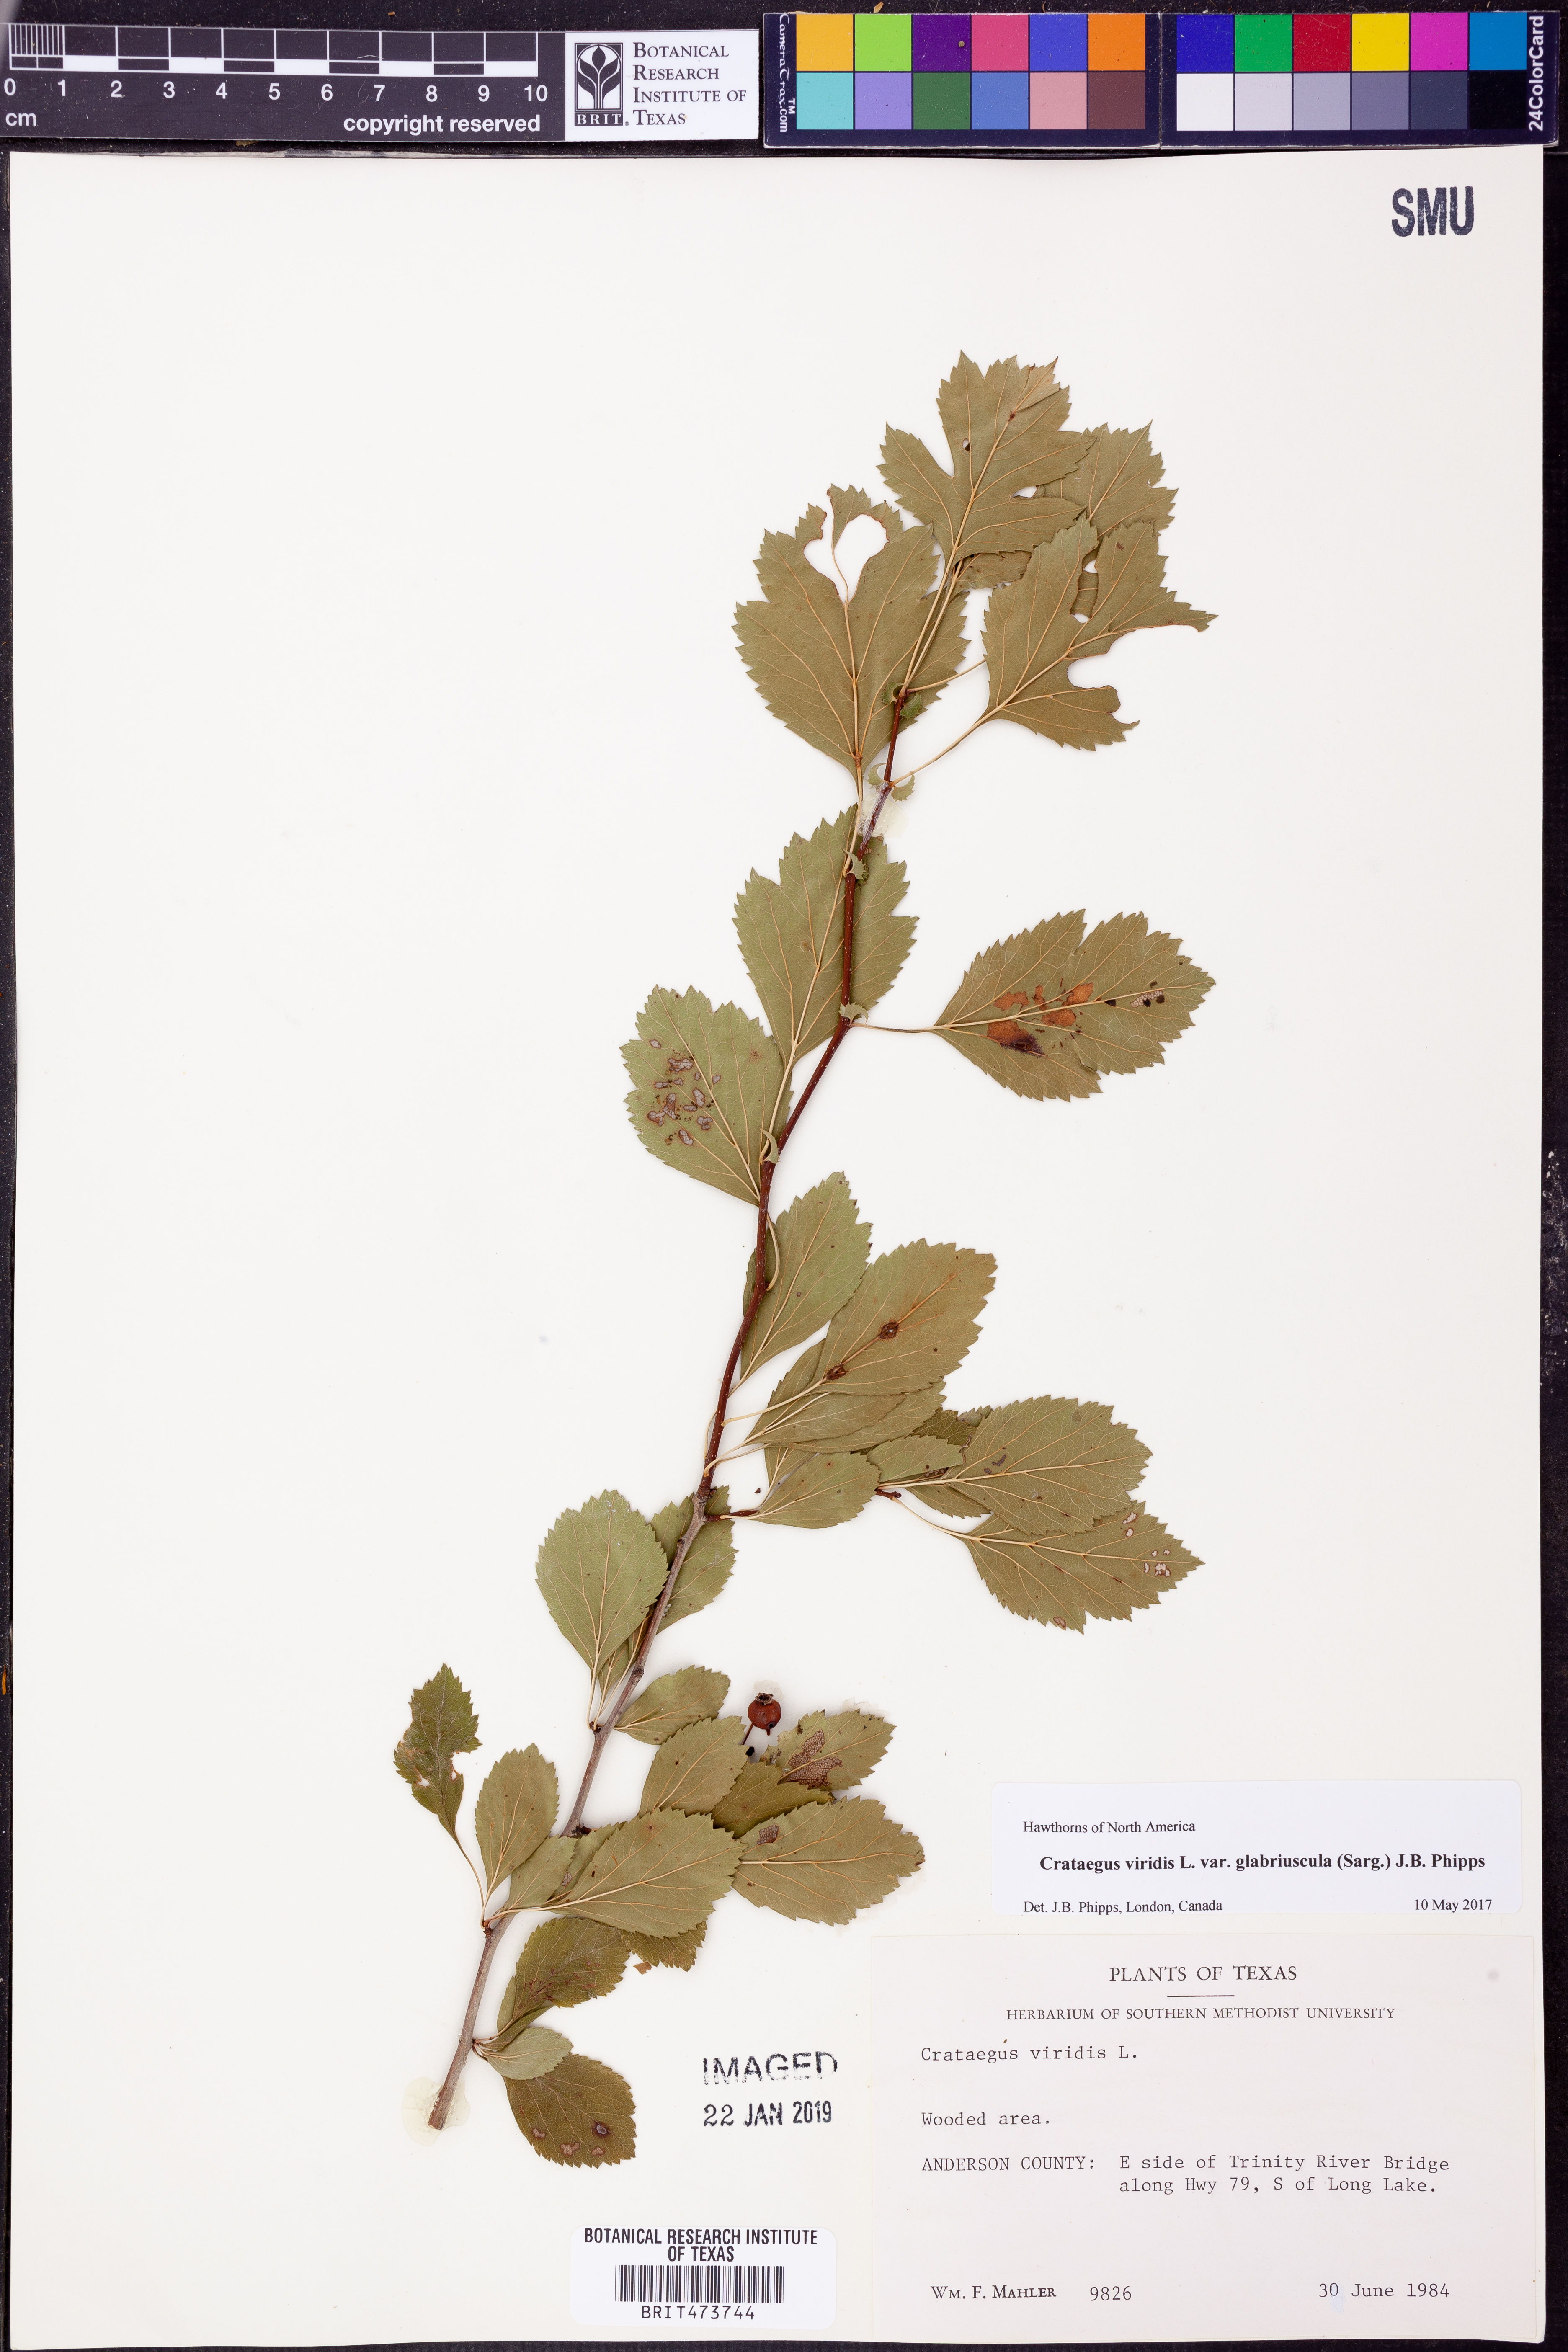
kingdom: Plantae
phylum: Tracheophyta
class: Magnoliopsida
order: Rosales
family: Rosaceae
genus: Crataegus
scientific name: Crataegus viridis
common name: Southernthorn
